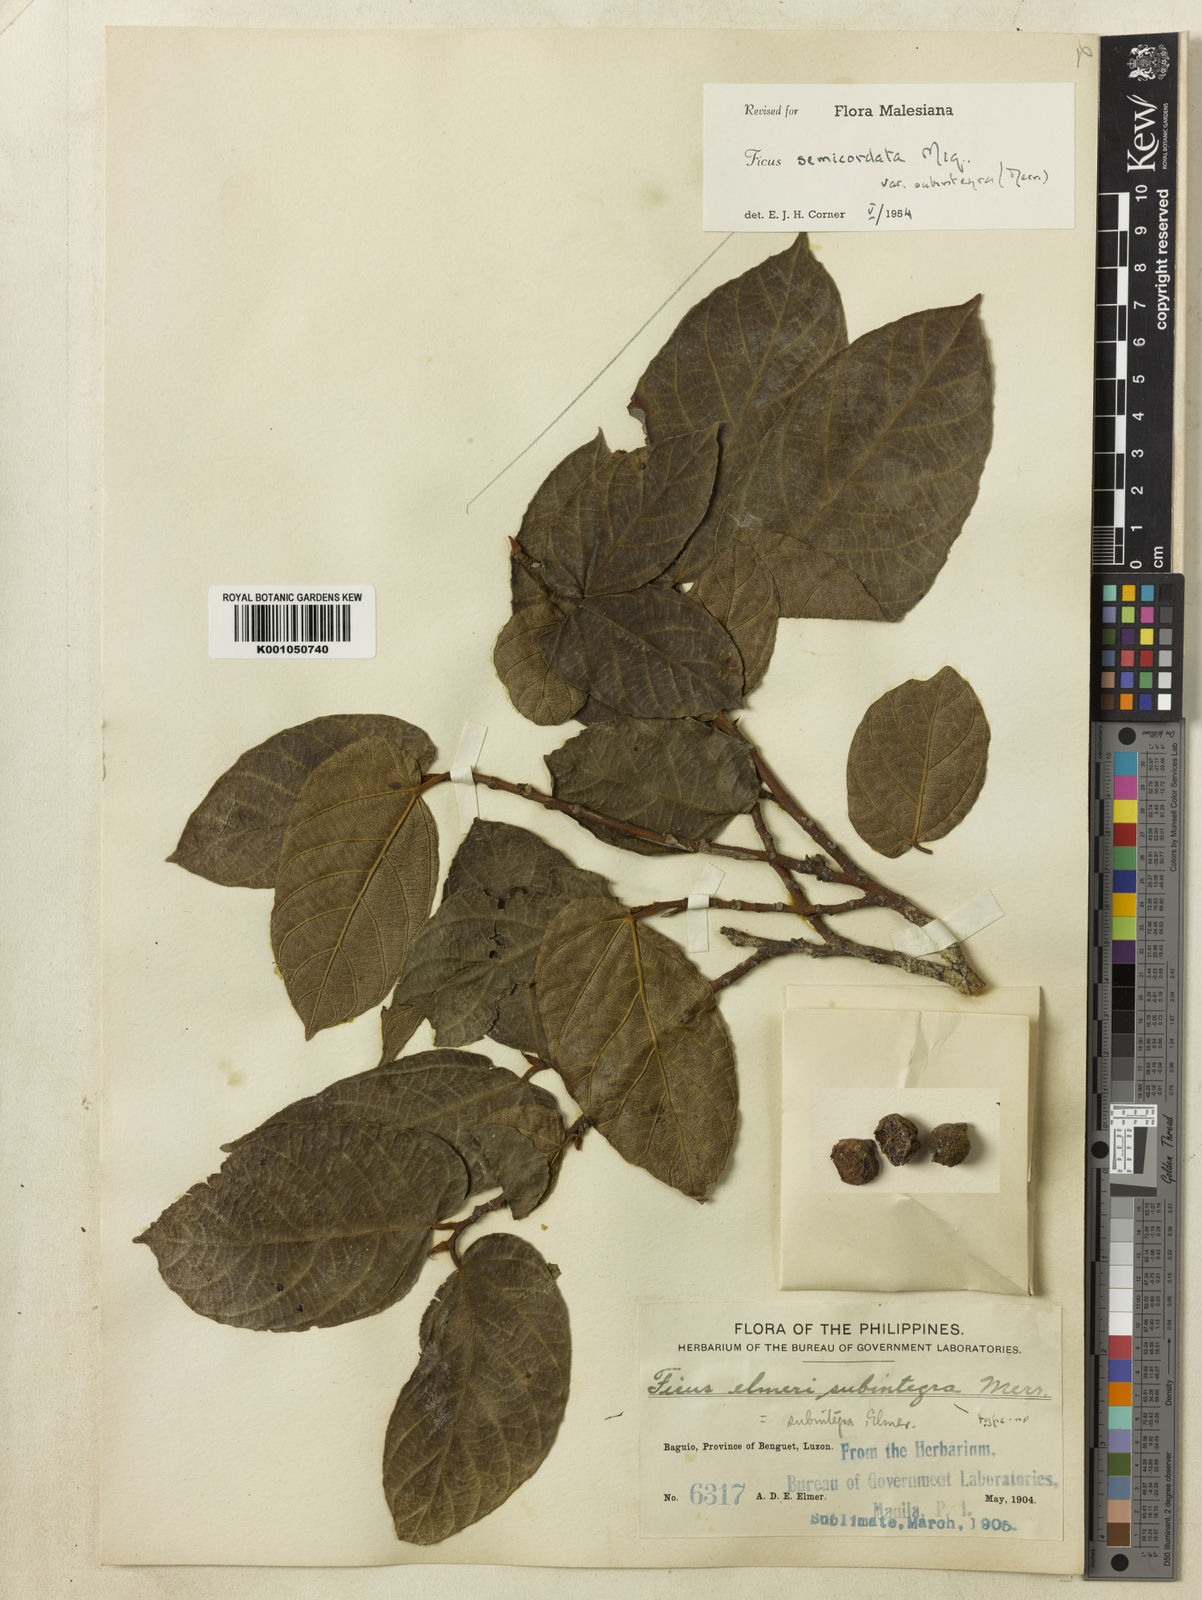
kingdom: Plantae
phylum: Tracheophyta
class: Magnoliopsida
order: Rosales
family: Moraceae
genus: Ficus
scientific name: Ficus elmeri
